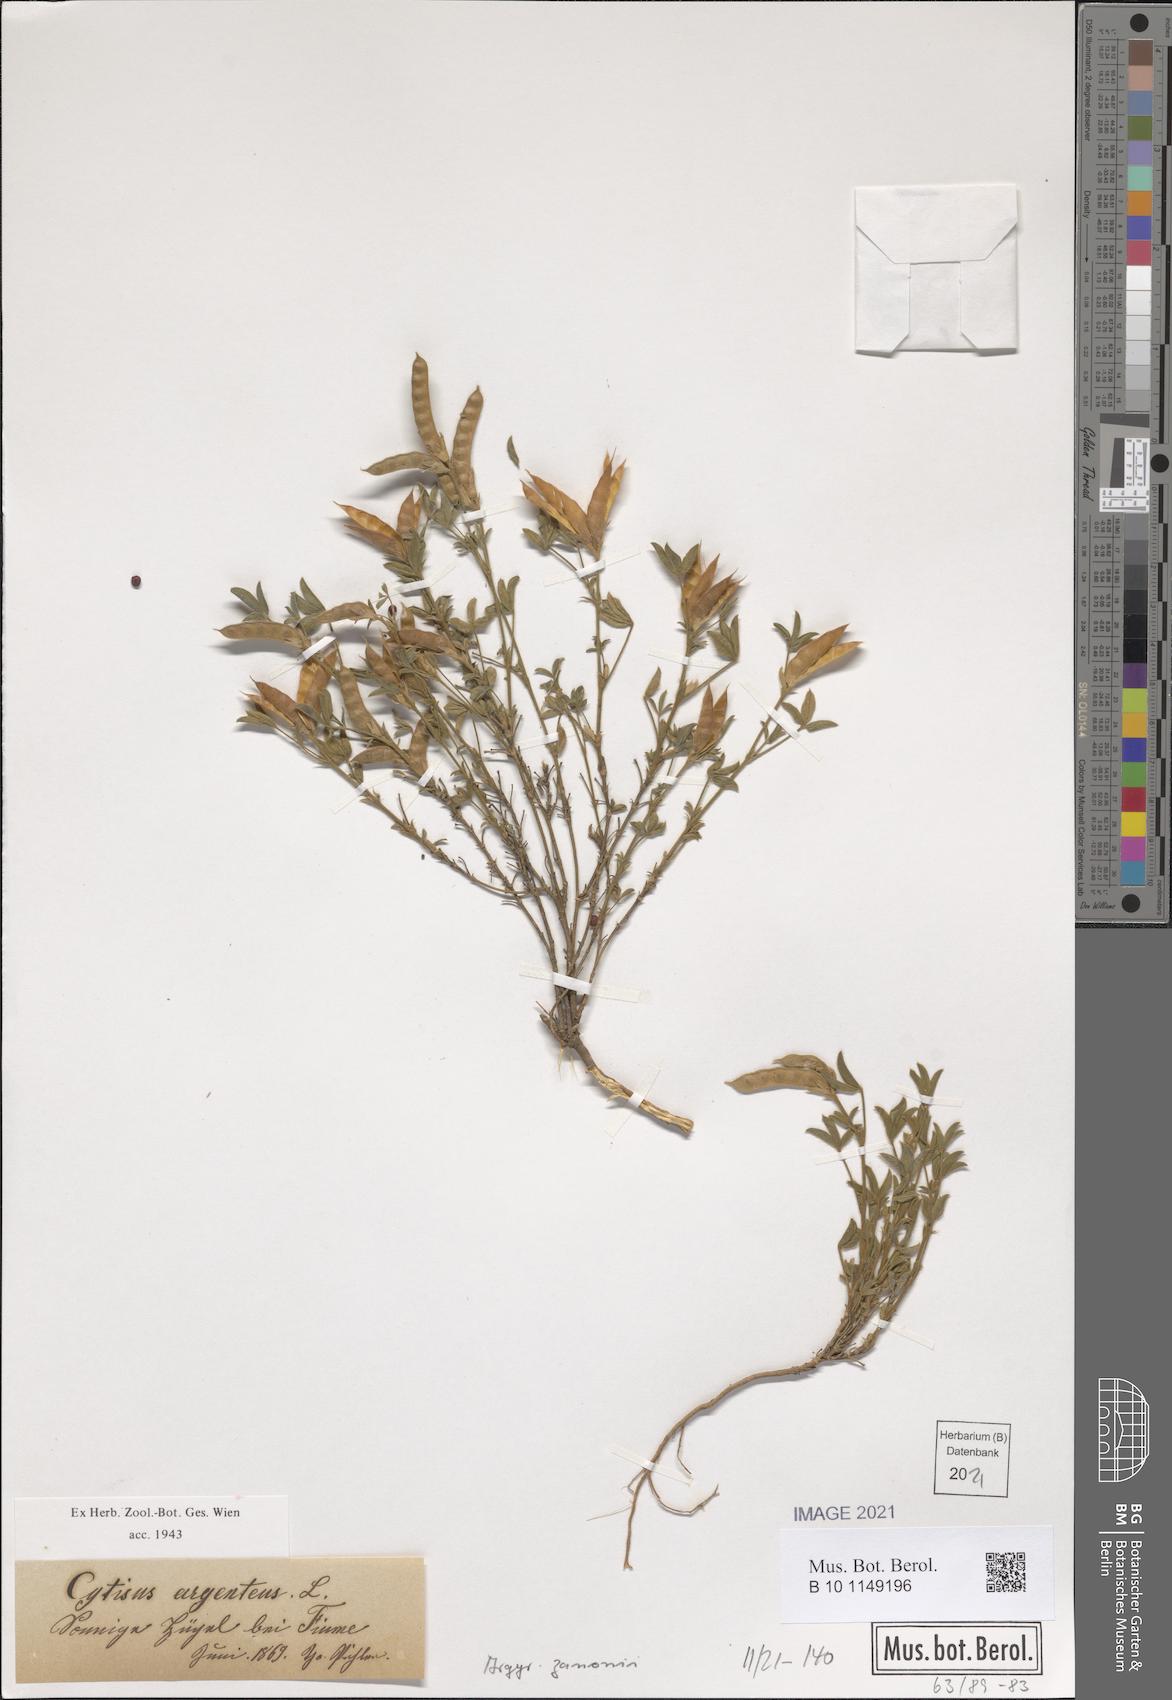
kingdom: Plantae
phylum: Tracheophyta
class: Magnoliopsida
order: Fabales
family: Fabaceae
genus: Argyrolobium
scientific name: Argyrolobium zanonii
